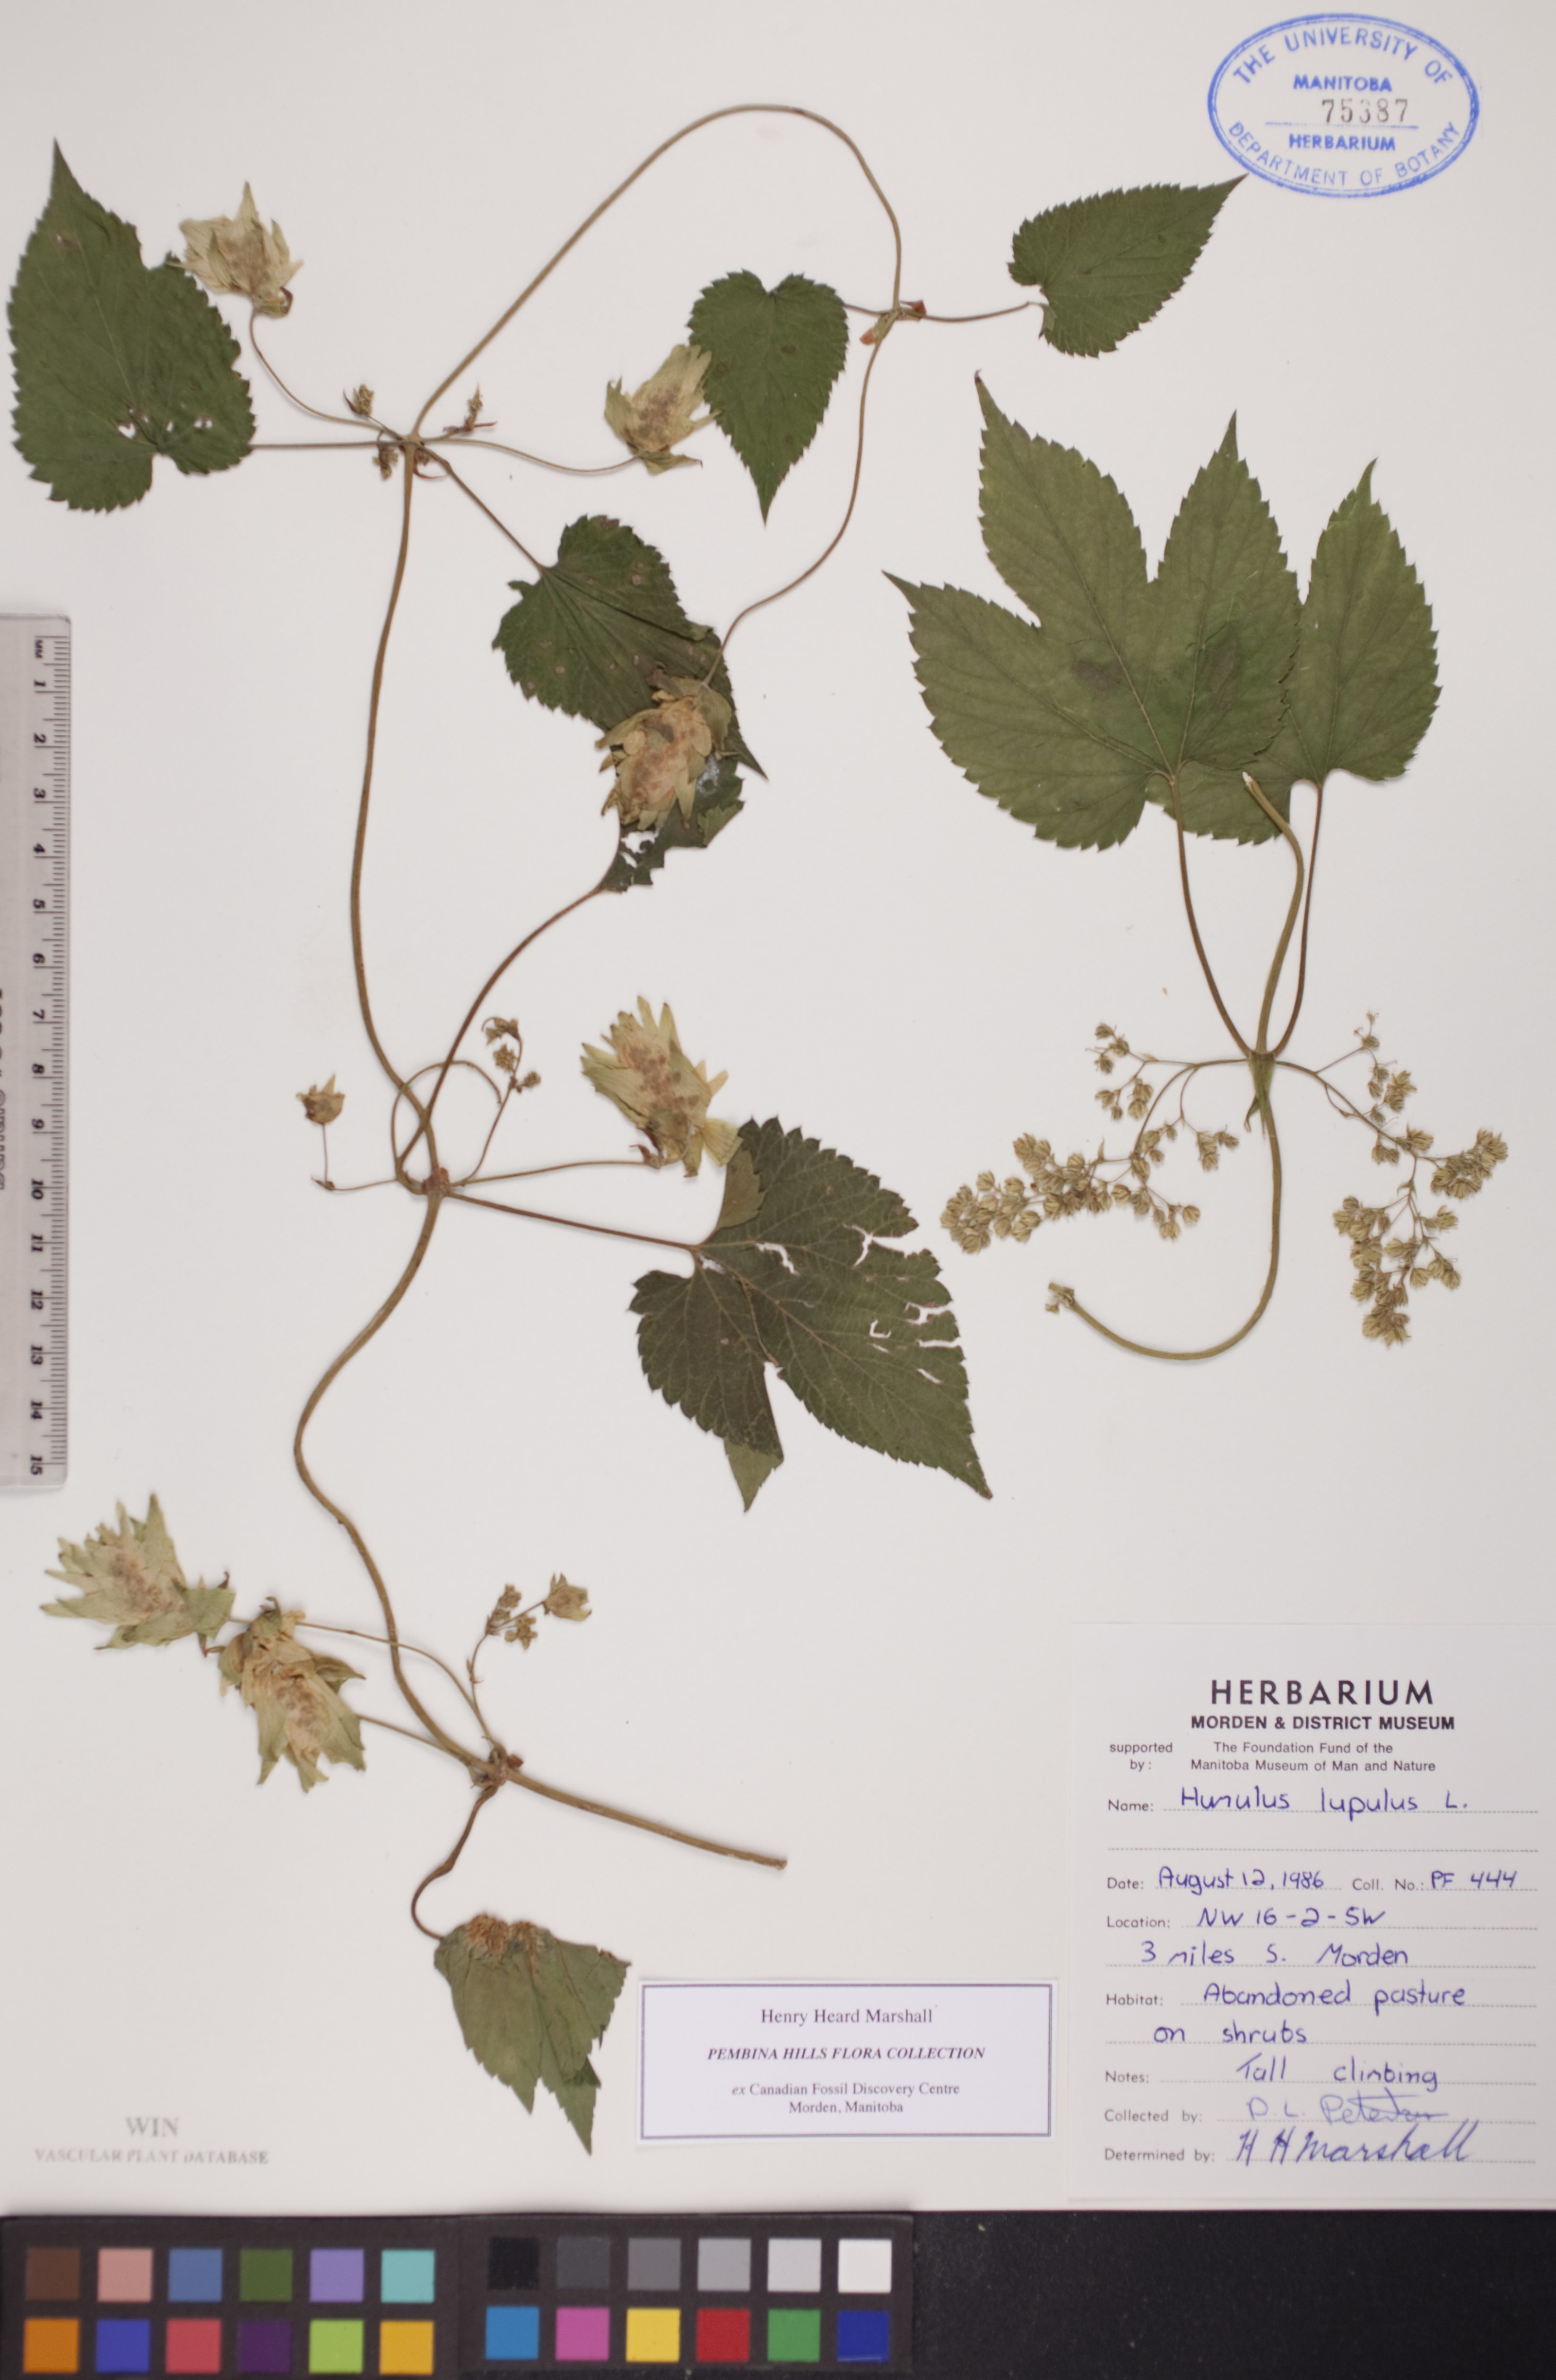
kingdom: Plantae
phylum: Tracheophyta
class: Magnoliopsida
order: Rosales
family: Cannabaceae
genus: Humulus
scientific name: Humulus lupulus
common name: Hop
